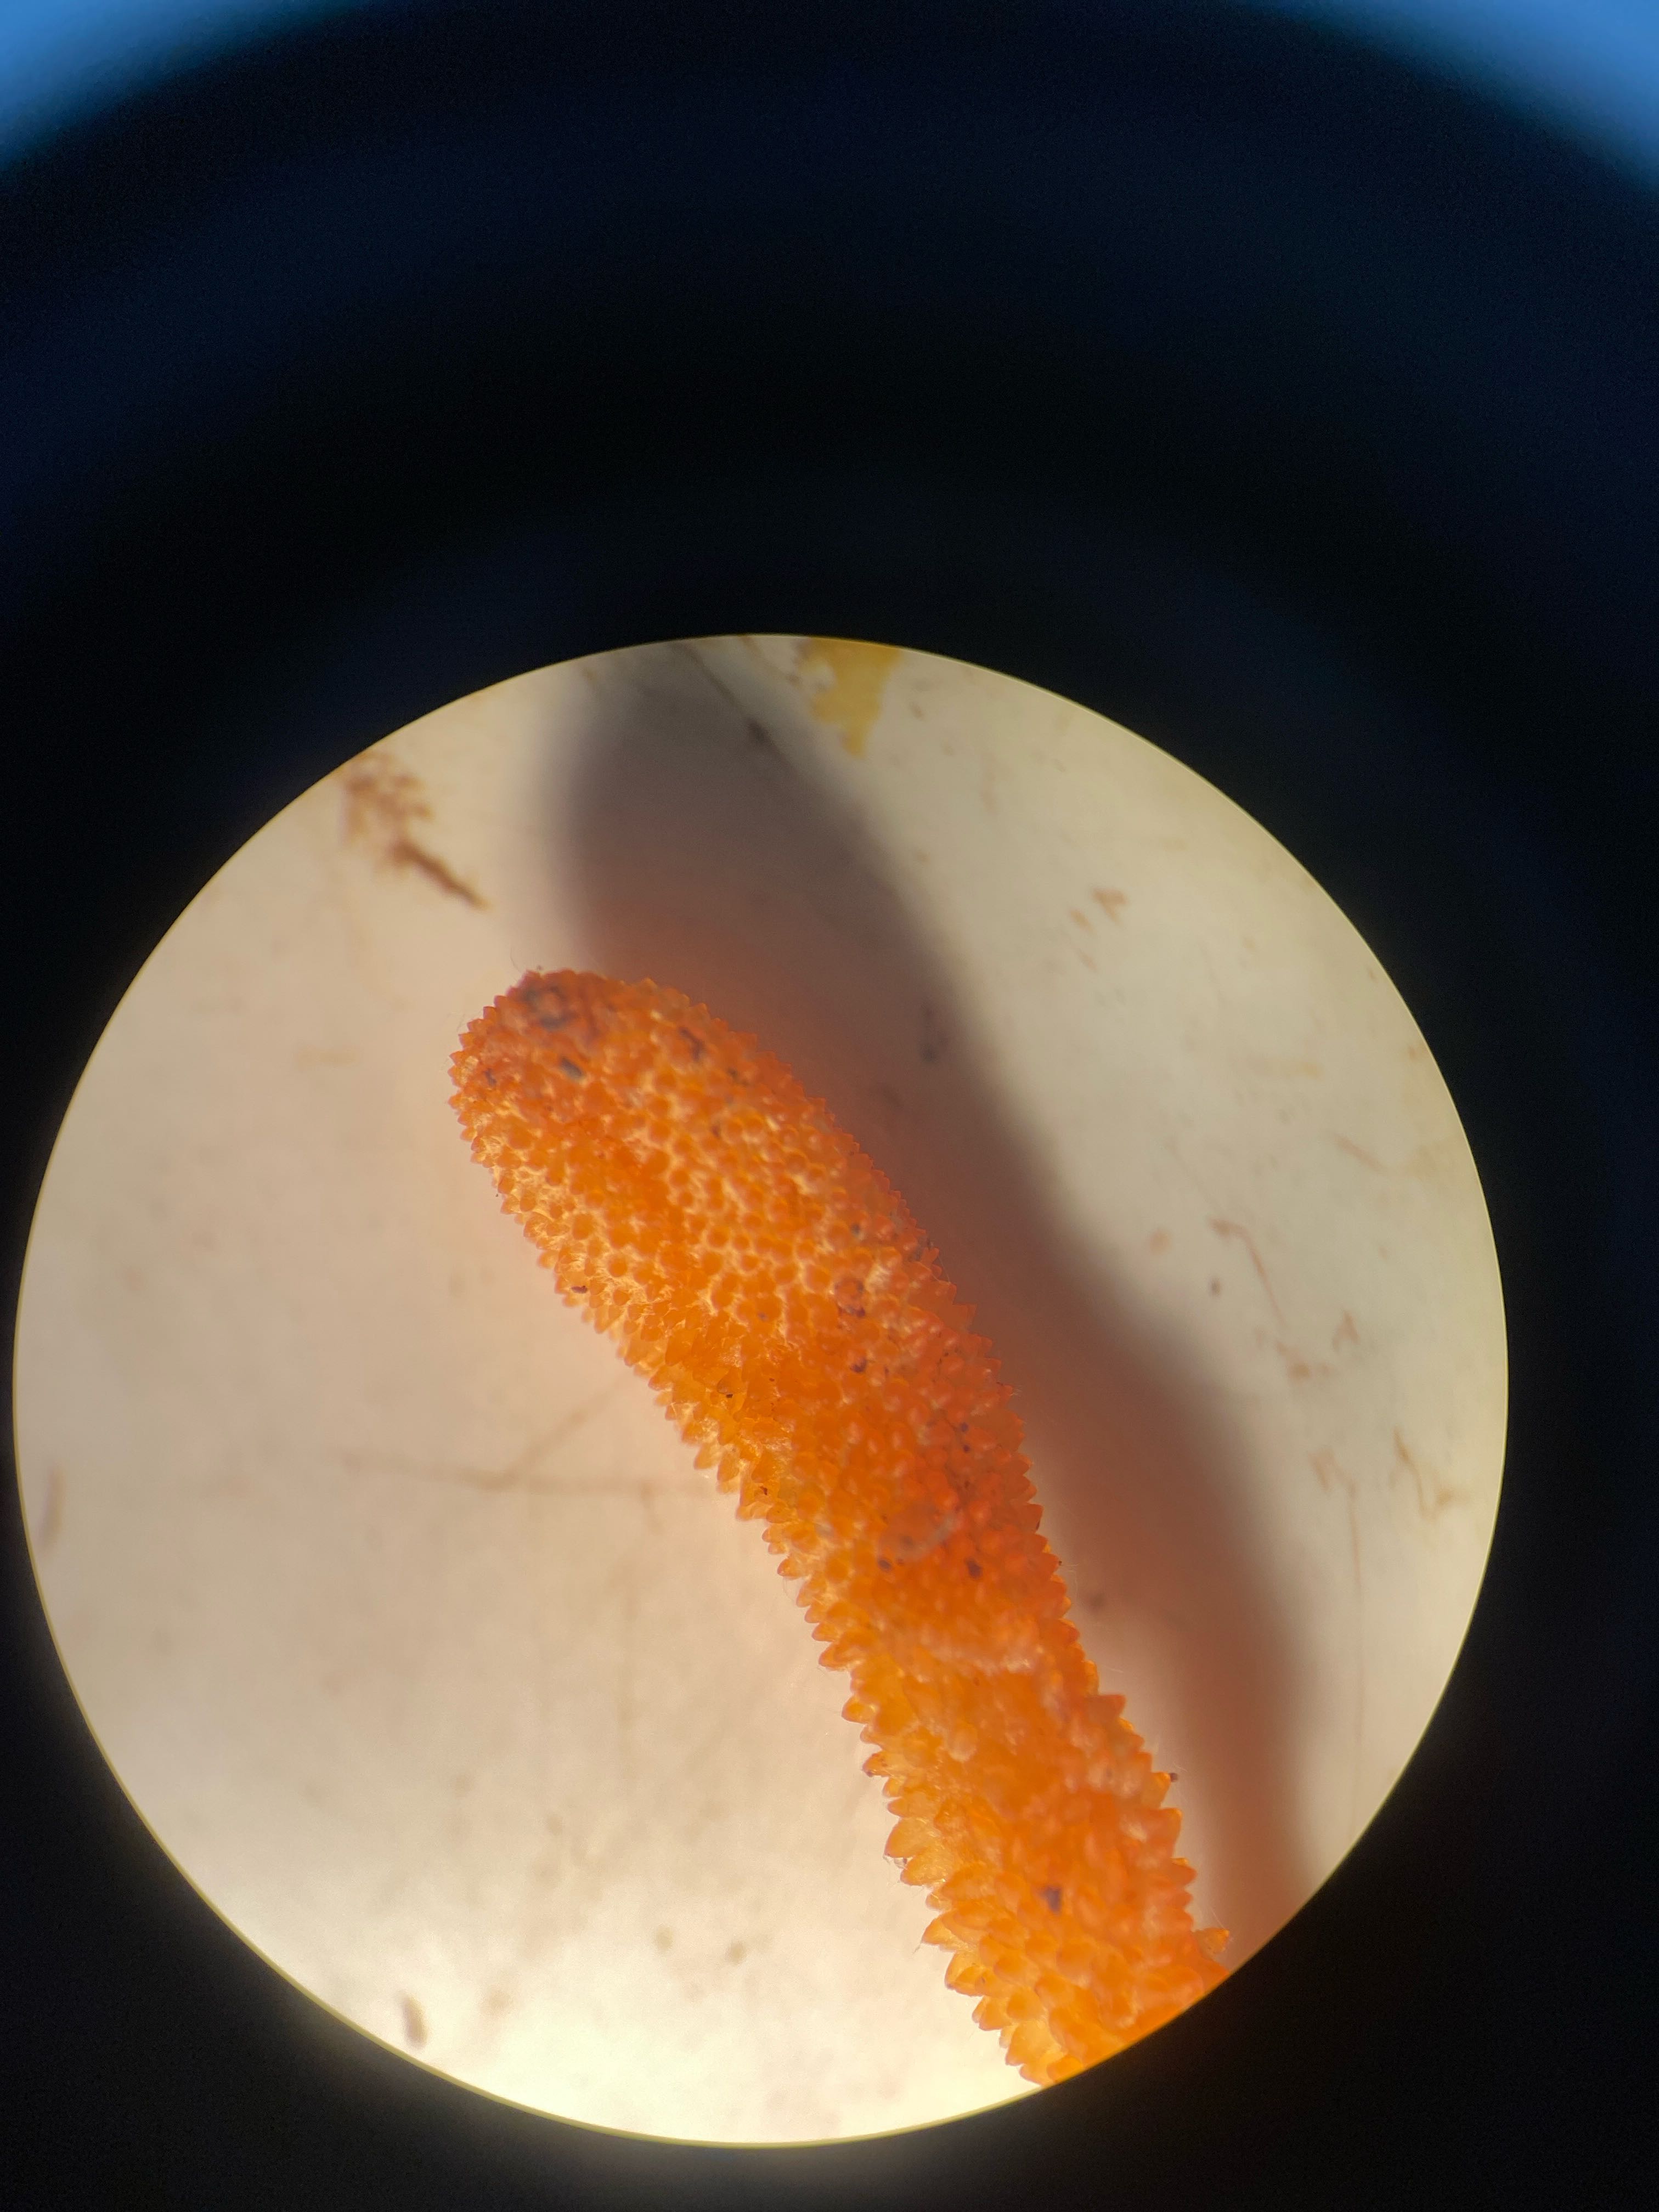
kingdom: Fungi
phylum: Ascomycota
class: Sordariomycetes
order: Hypocreales
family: Cordycipitaceae
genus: Cordyceps
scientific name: Cordyceps militaris
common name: puppe-snyltekølle
